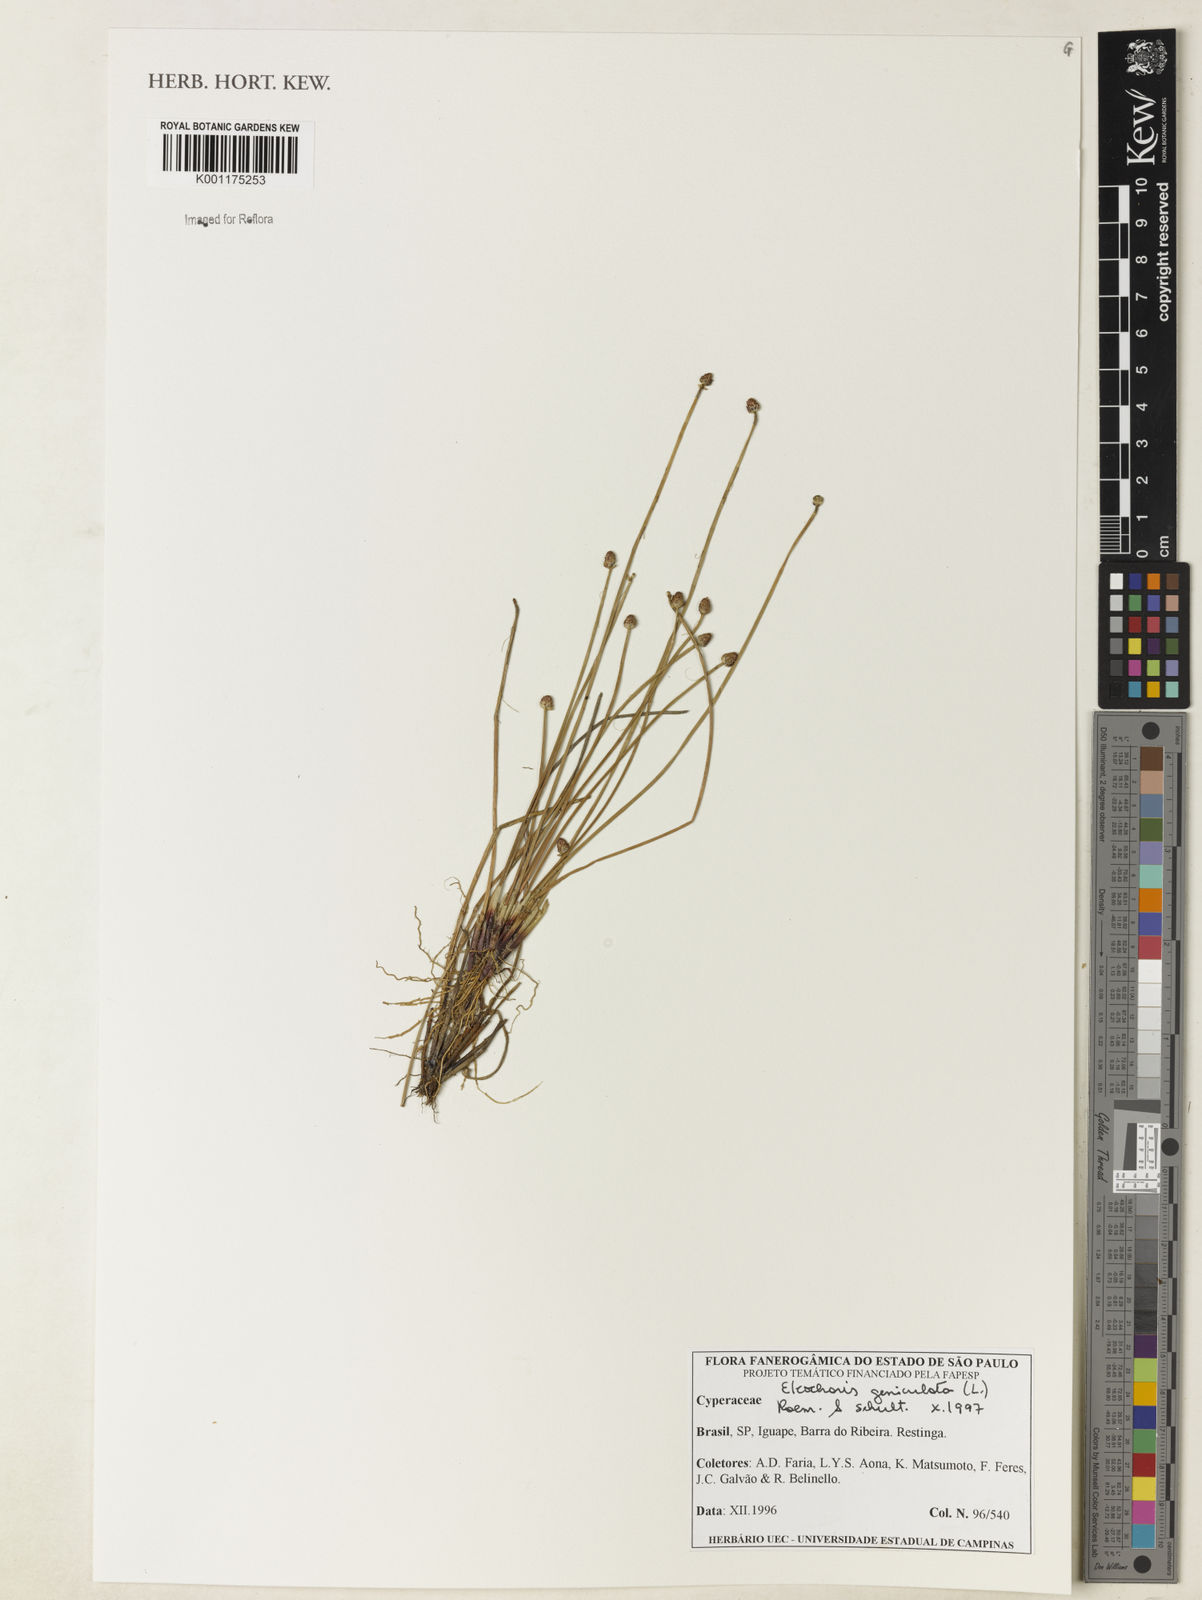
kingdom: Plantae
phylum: Tracheophyta
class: Liliopsida
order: Poales
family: Cyperaceae
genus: Eleocharis
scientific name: Eleocharis geniculata
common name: Canada spikesedge
